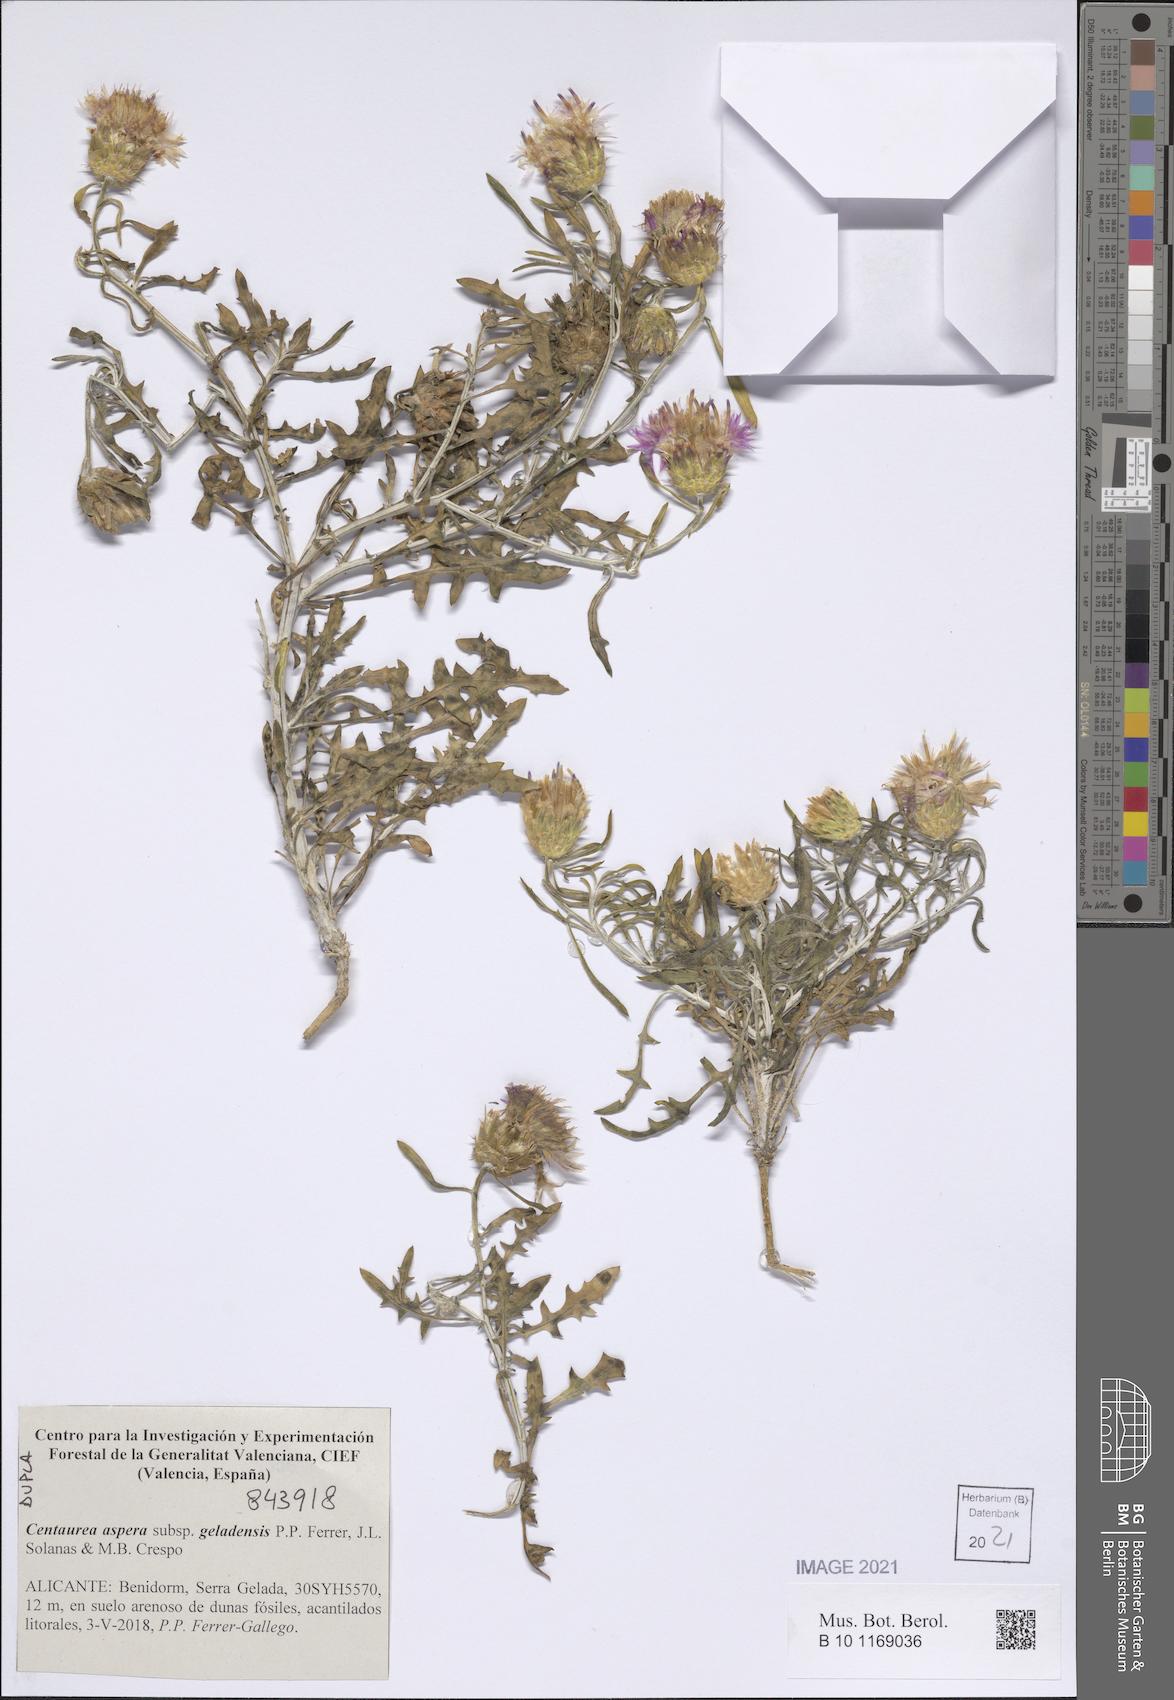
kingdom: Plantae
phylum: Tracheophyta
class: Magnoliopsida
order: Asterales
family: Asteraceae
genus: Centaurea
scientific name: Centaurea aspera
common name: Rough star-thistle
